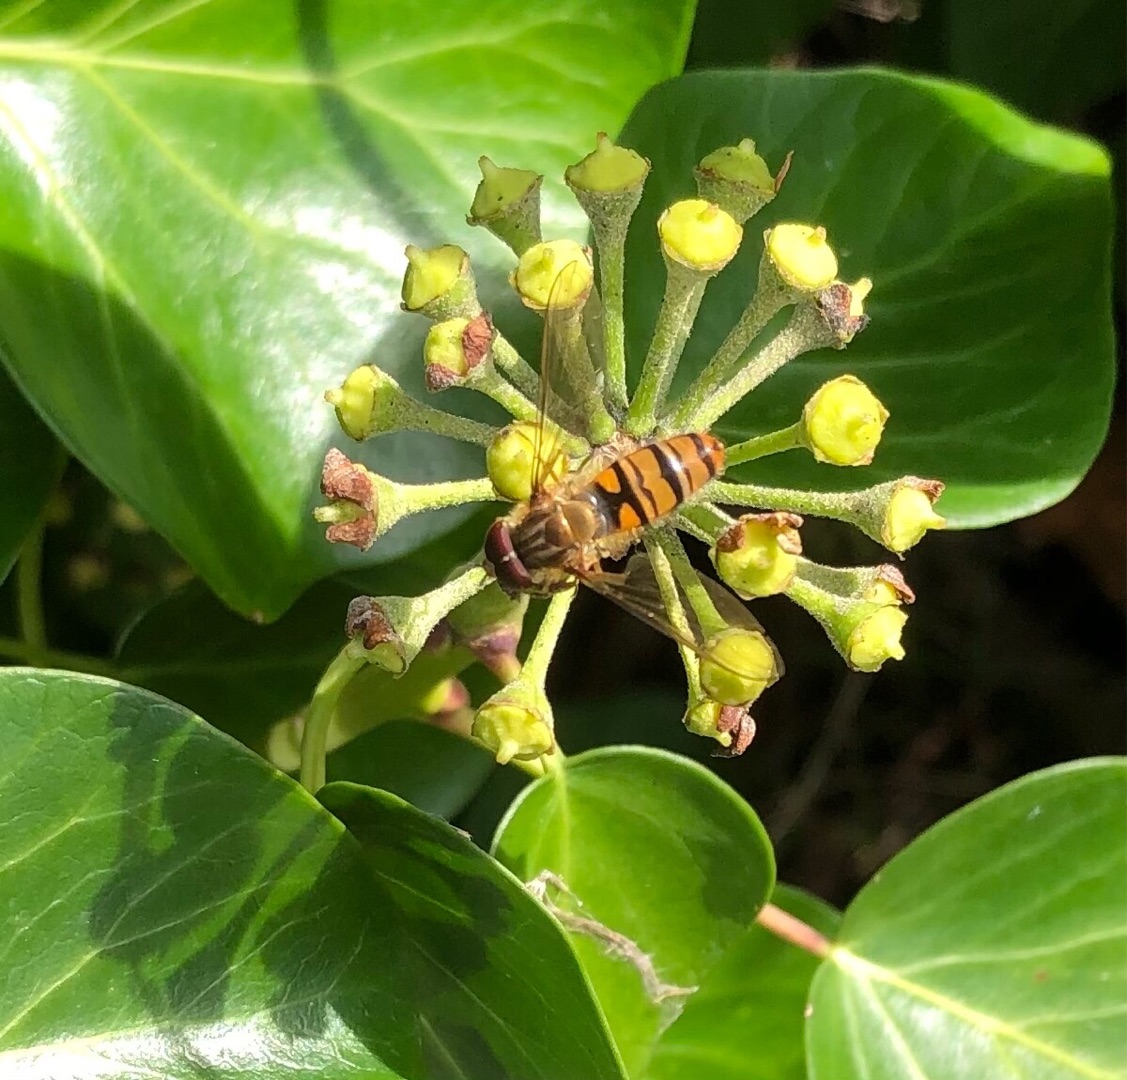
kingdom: Animalia
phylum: Arthropoda
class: Insecta
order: Diptera
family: Syrphidae
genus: Episyrphus
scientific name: Episyrphus balteatus
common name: Dobbeltbåndet svirreflue
